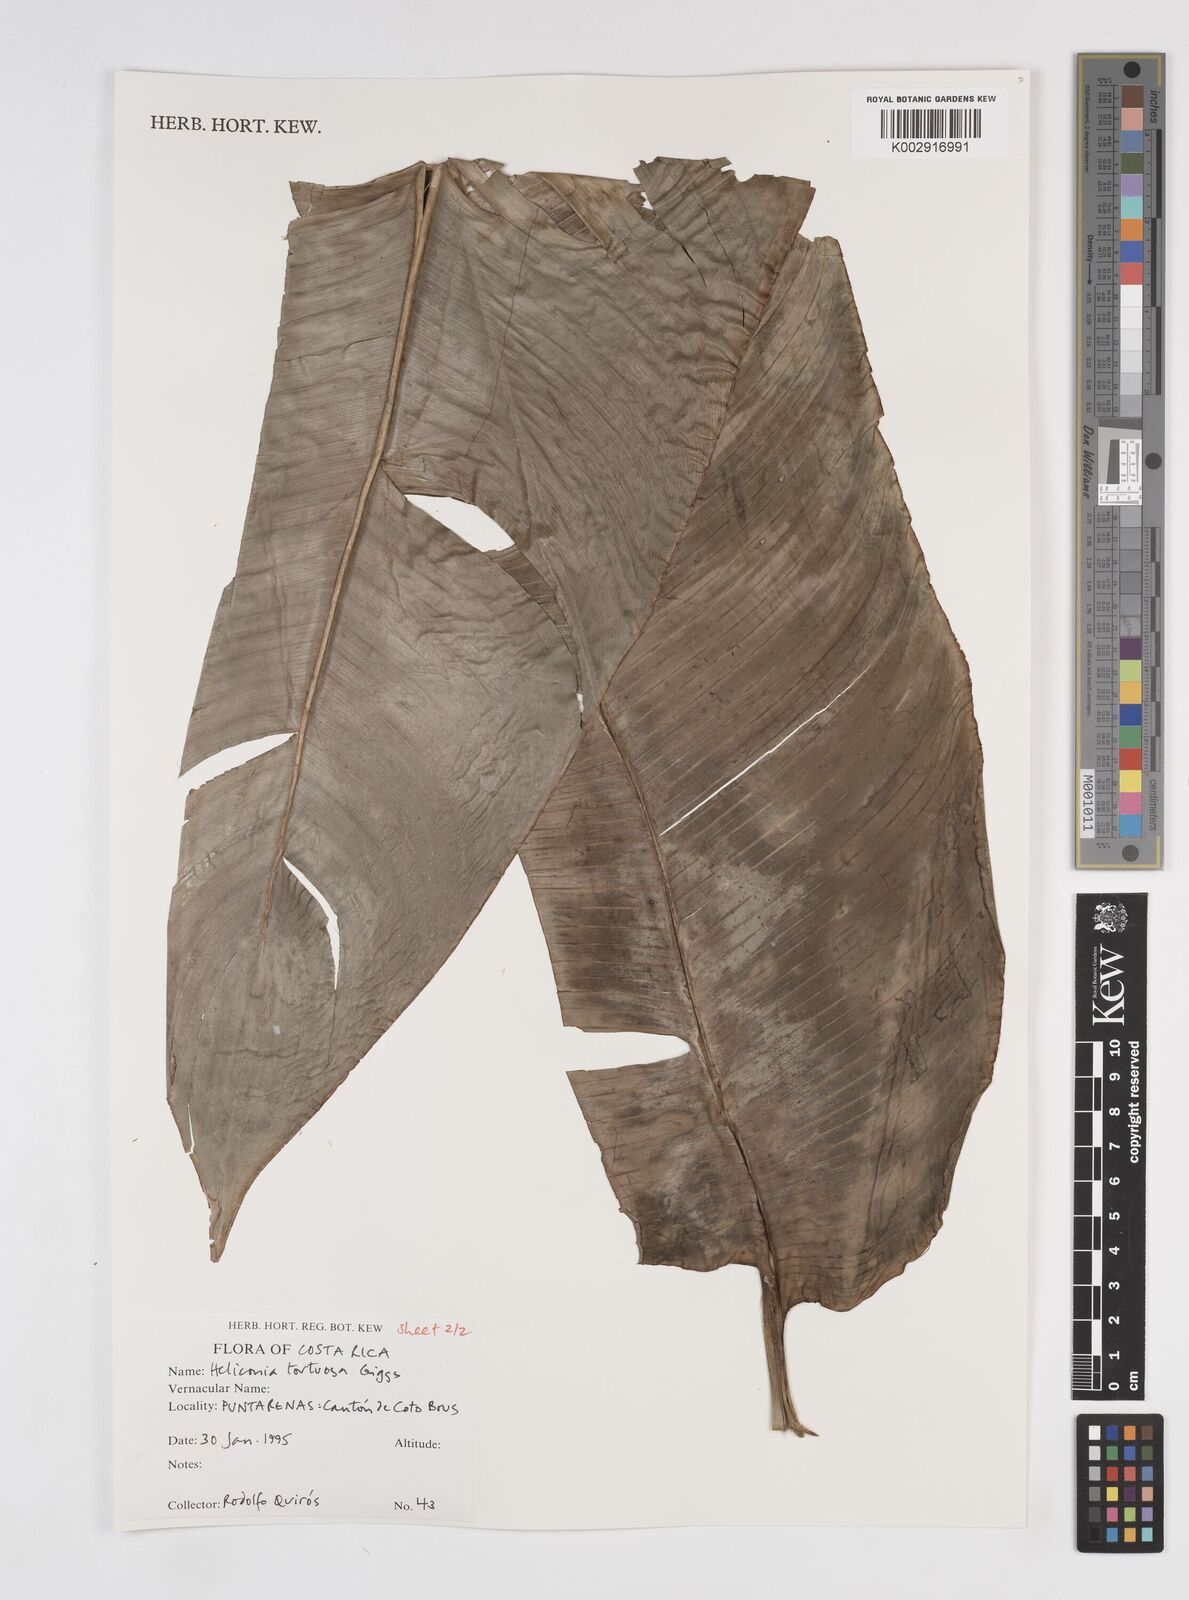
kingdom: Plantae
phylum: Tracheophyta
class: Liliopsida
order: Zingiberales
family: Heliconiaceae
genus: Heliconia
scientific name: Heliconia tortuosa
